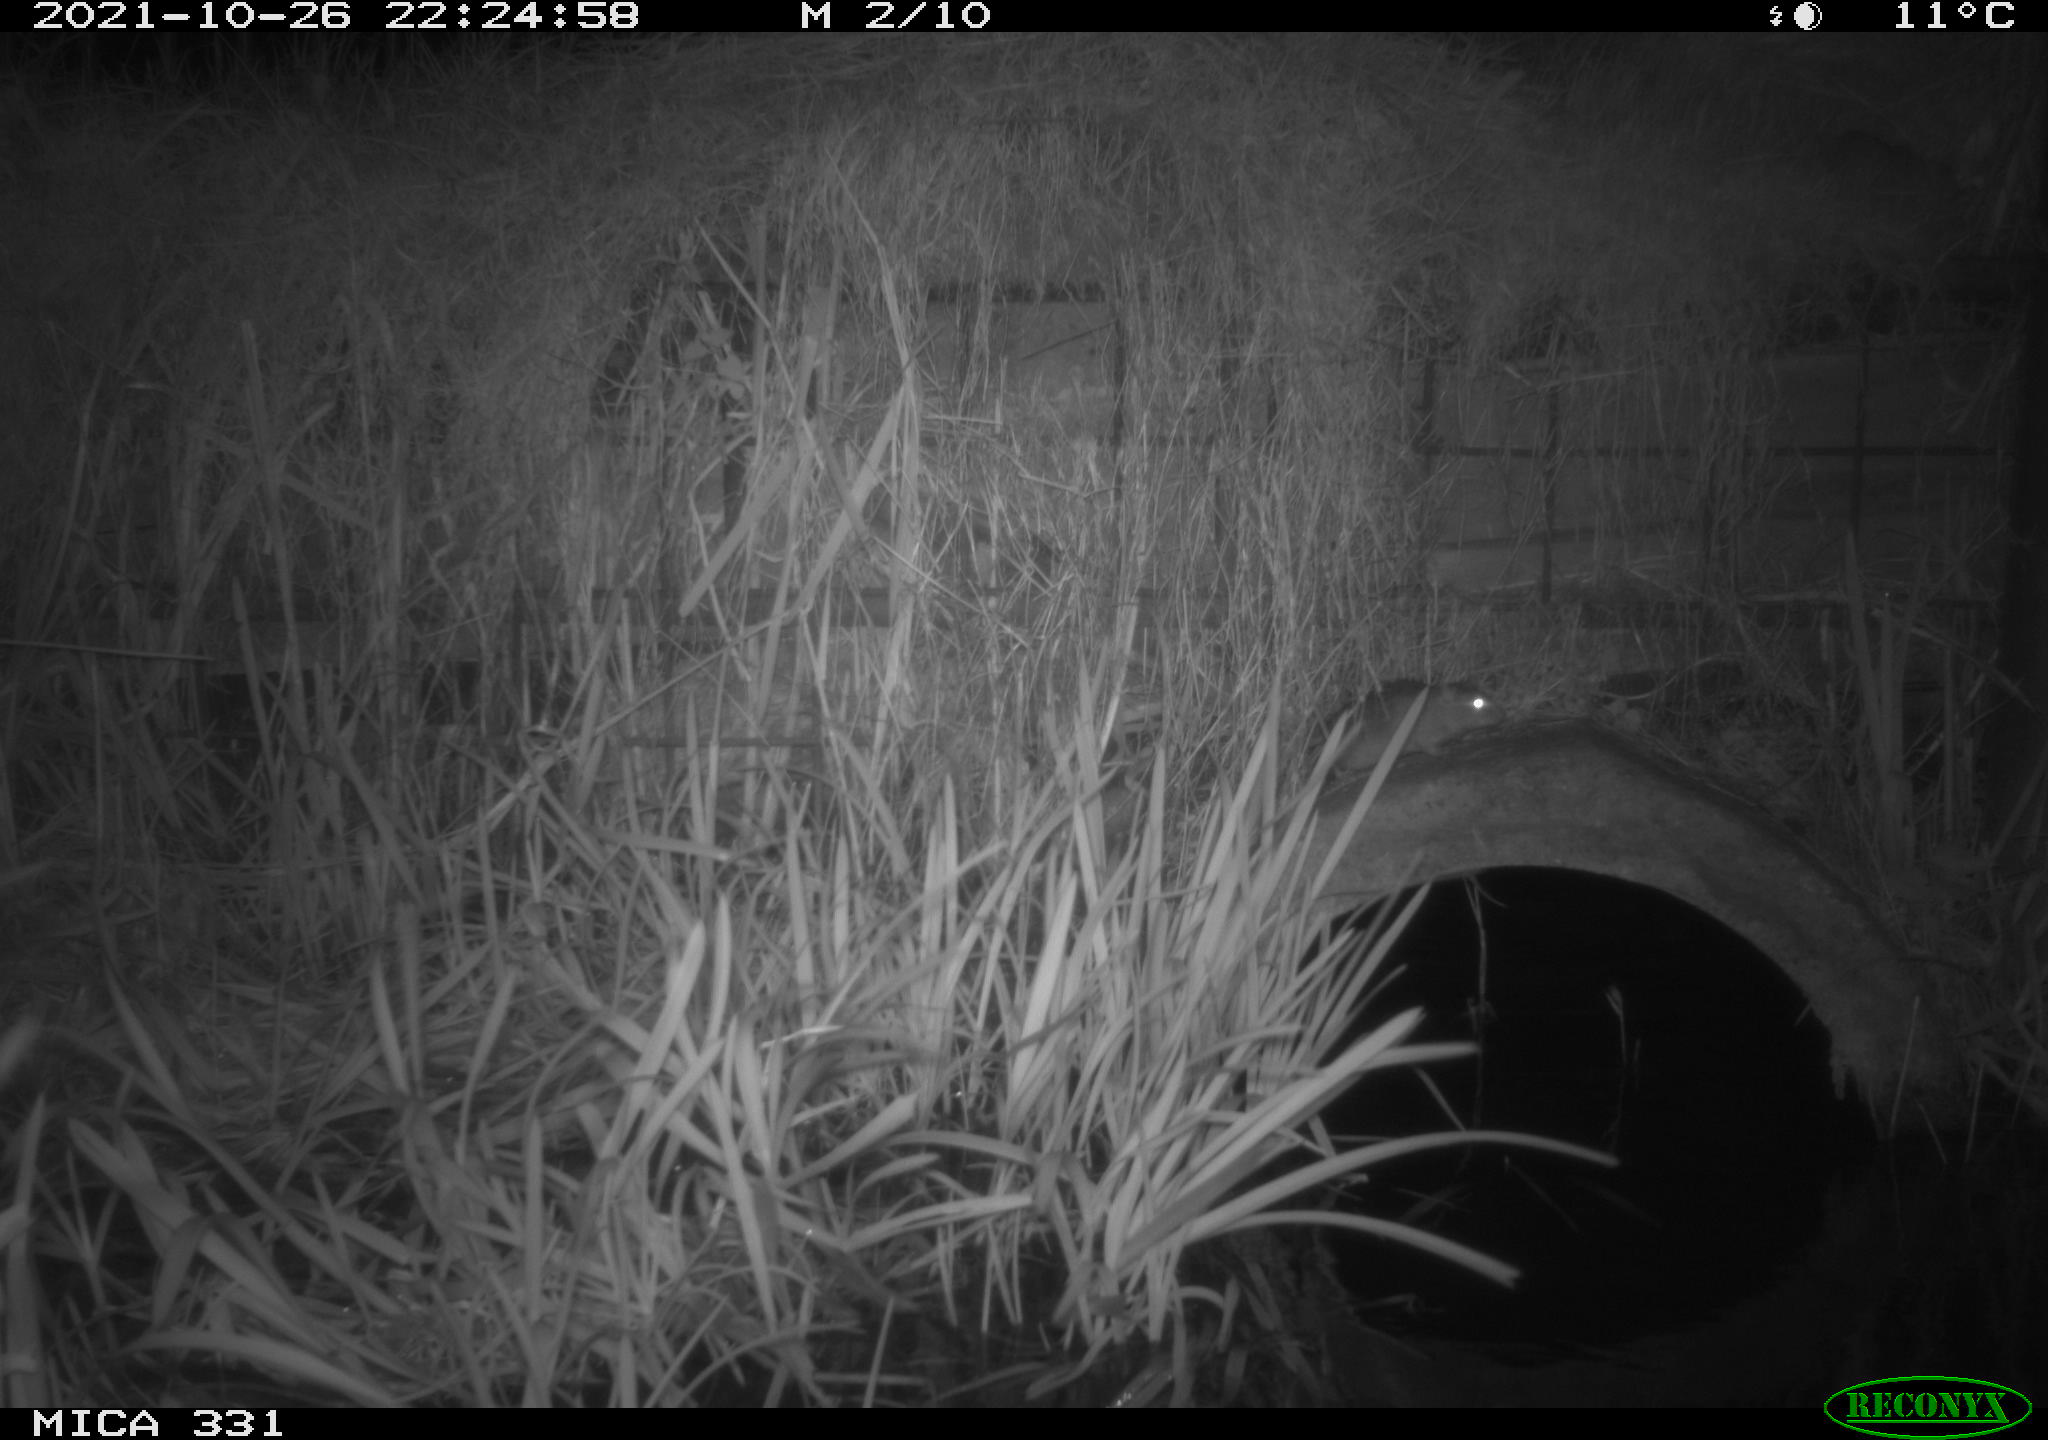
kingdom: Animalia
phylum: Chordata
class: Mammalia
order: Rodentia
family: Muridae
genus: Rattus
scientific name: Rattus norvegicus
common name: Brown rat
